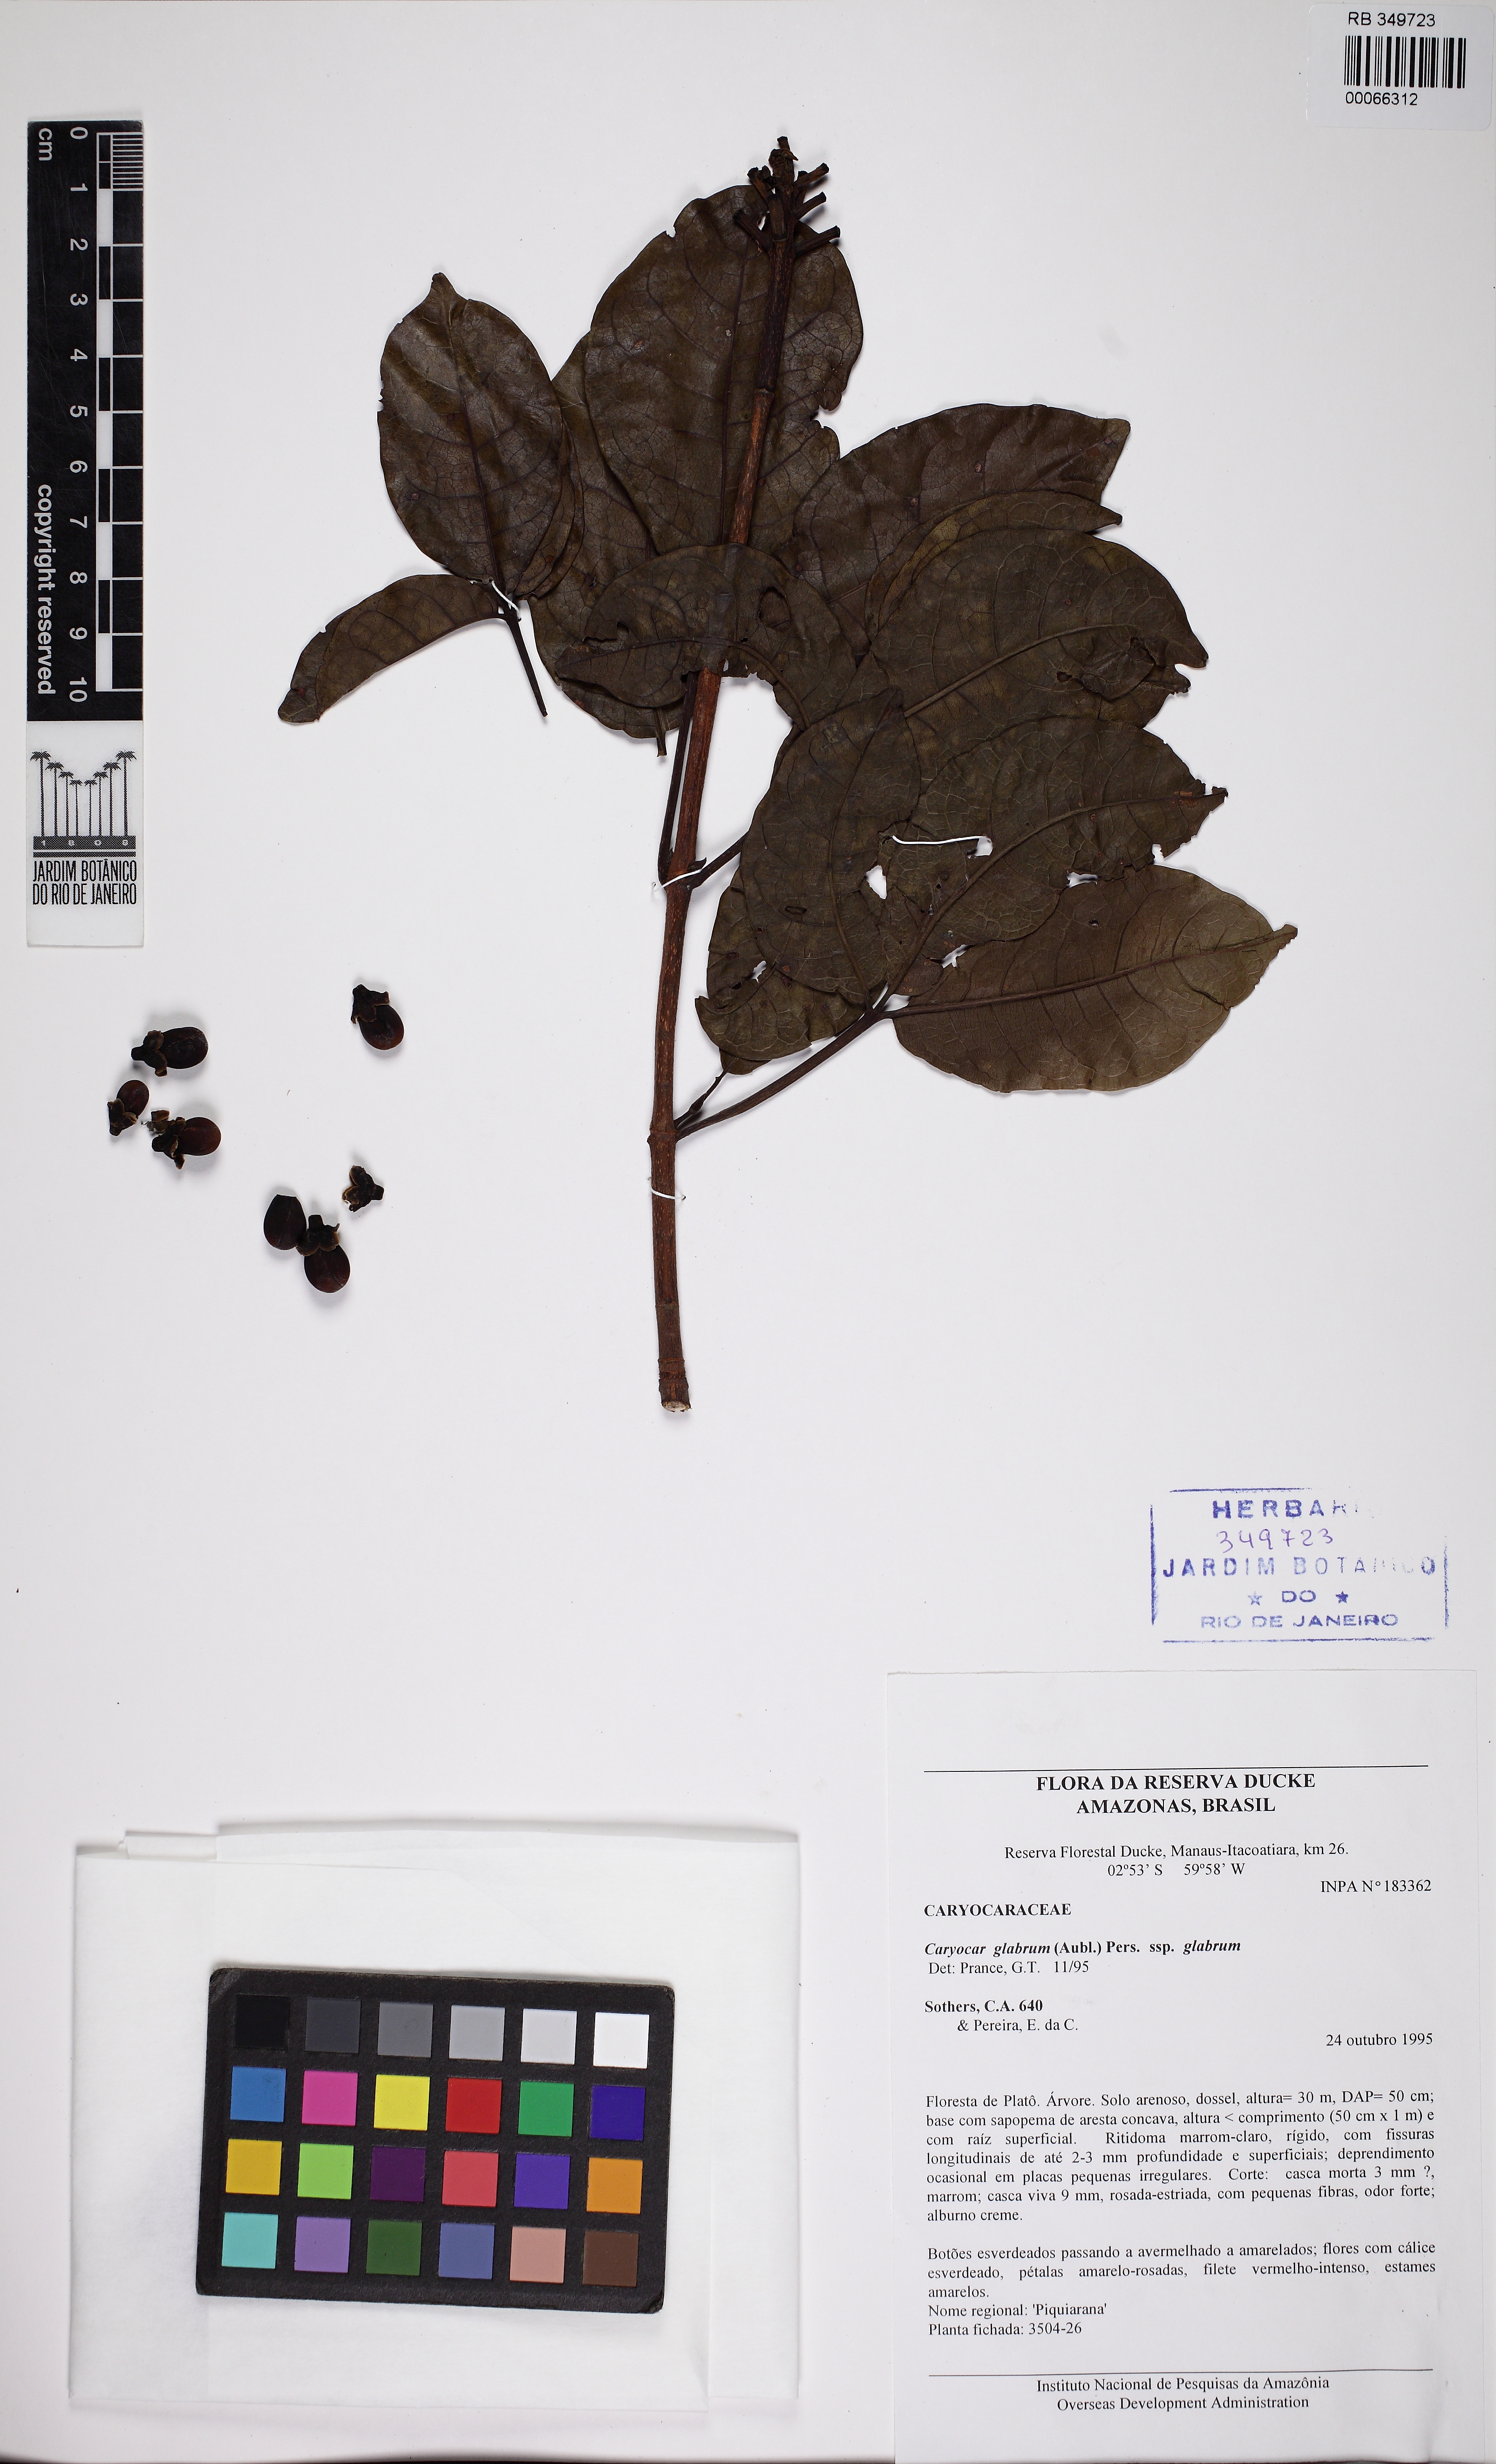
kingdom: Plantae
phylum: Tracheophyta
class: Magnoliopsida
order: Malpighiales
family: Caryocaraceae
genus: Caryocar
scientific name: Caryocar glabrum
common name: Bat's souari
